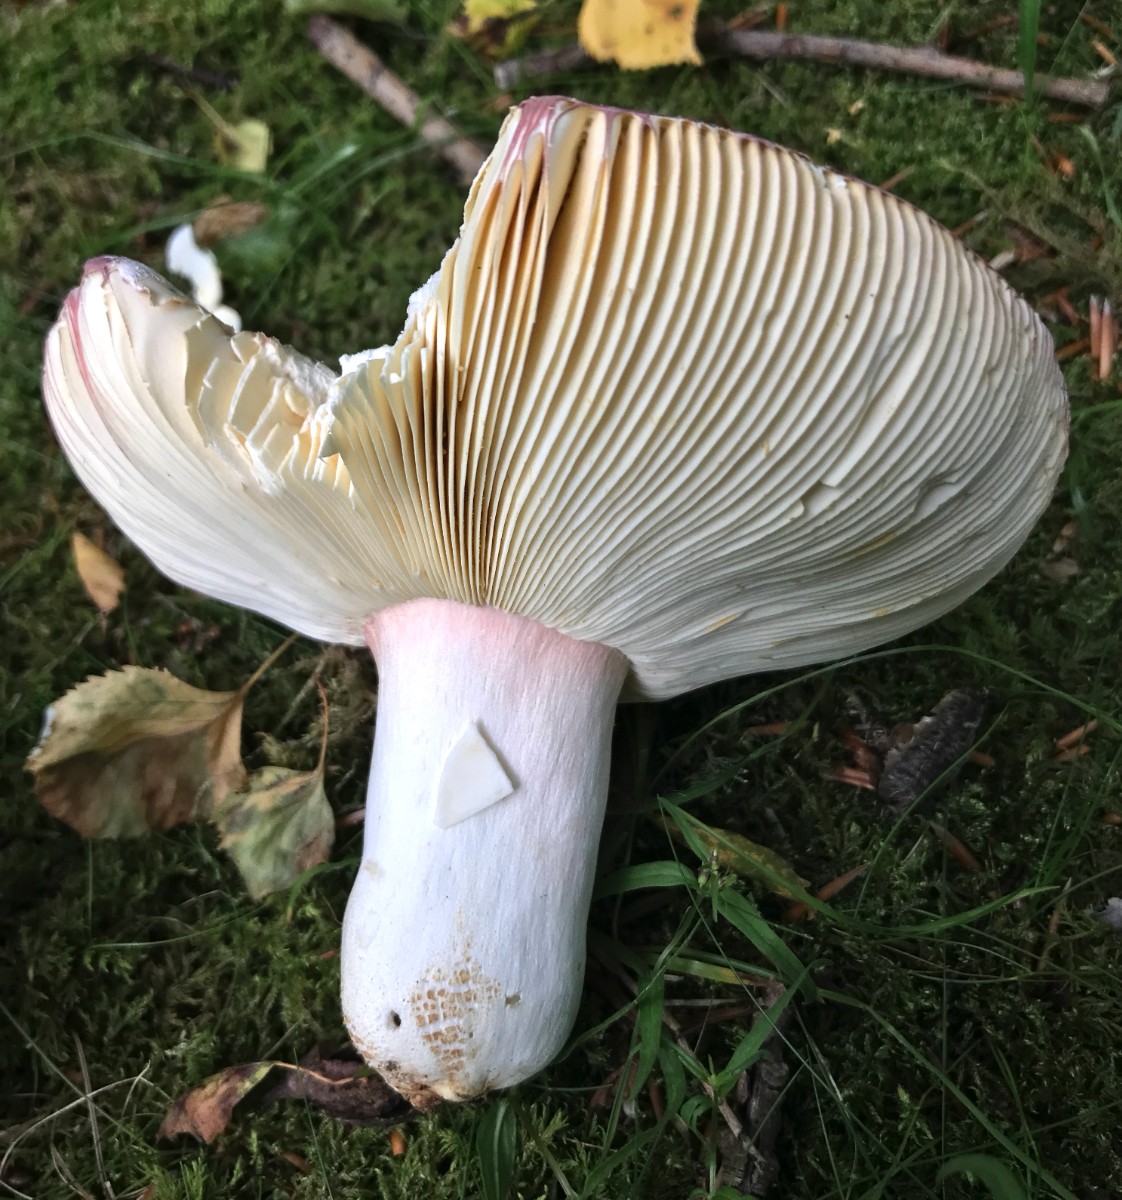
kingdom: Fungi
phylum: Basidiomycota
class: Agaricomycetes
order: Russulales
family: Russulaceae
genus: Russula
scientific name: Russula olivacea
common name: stor skørhat
